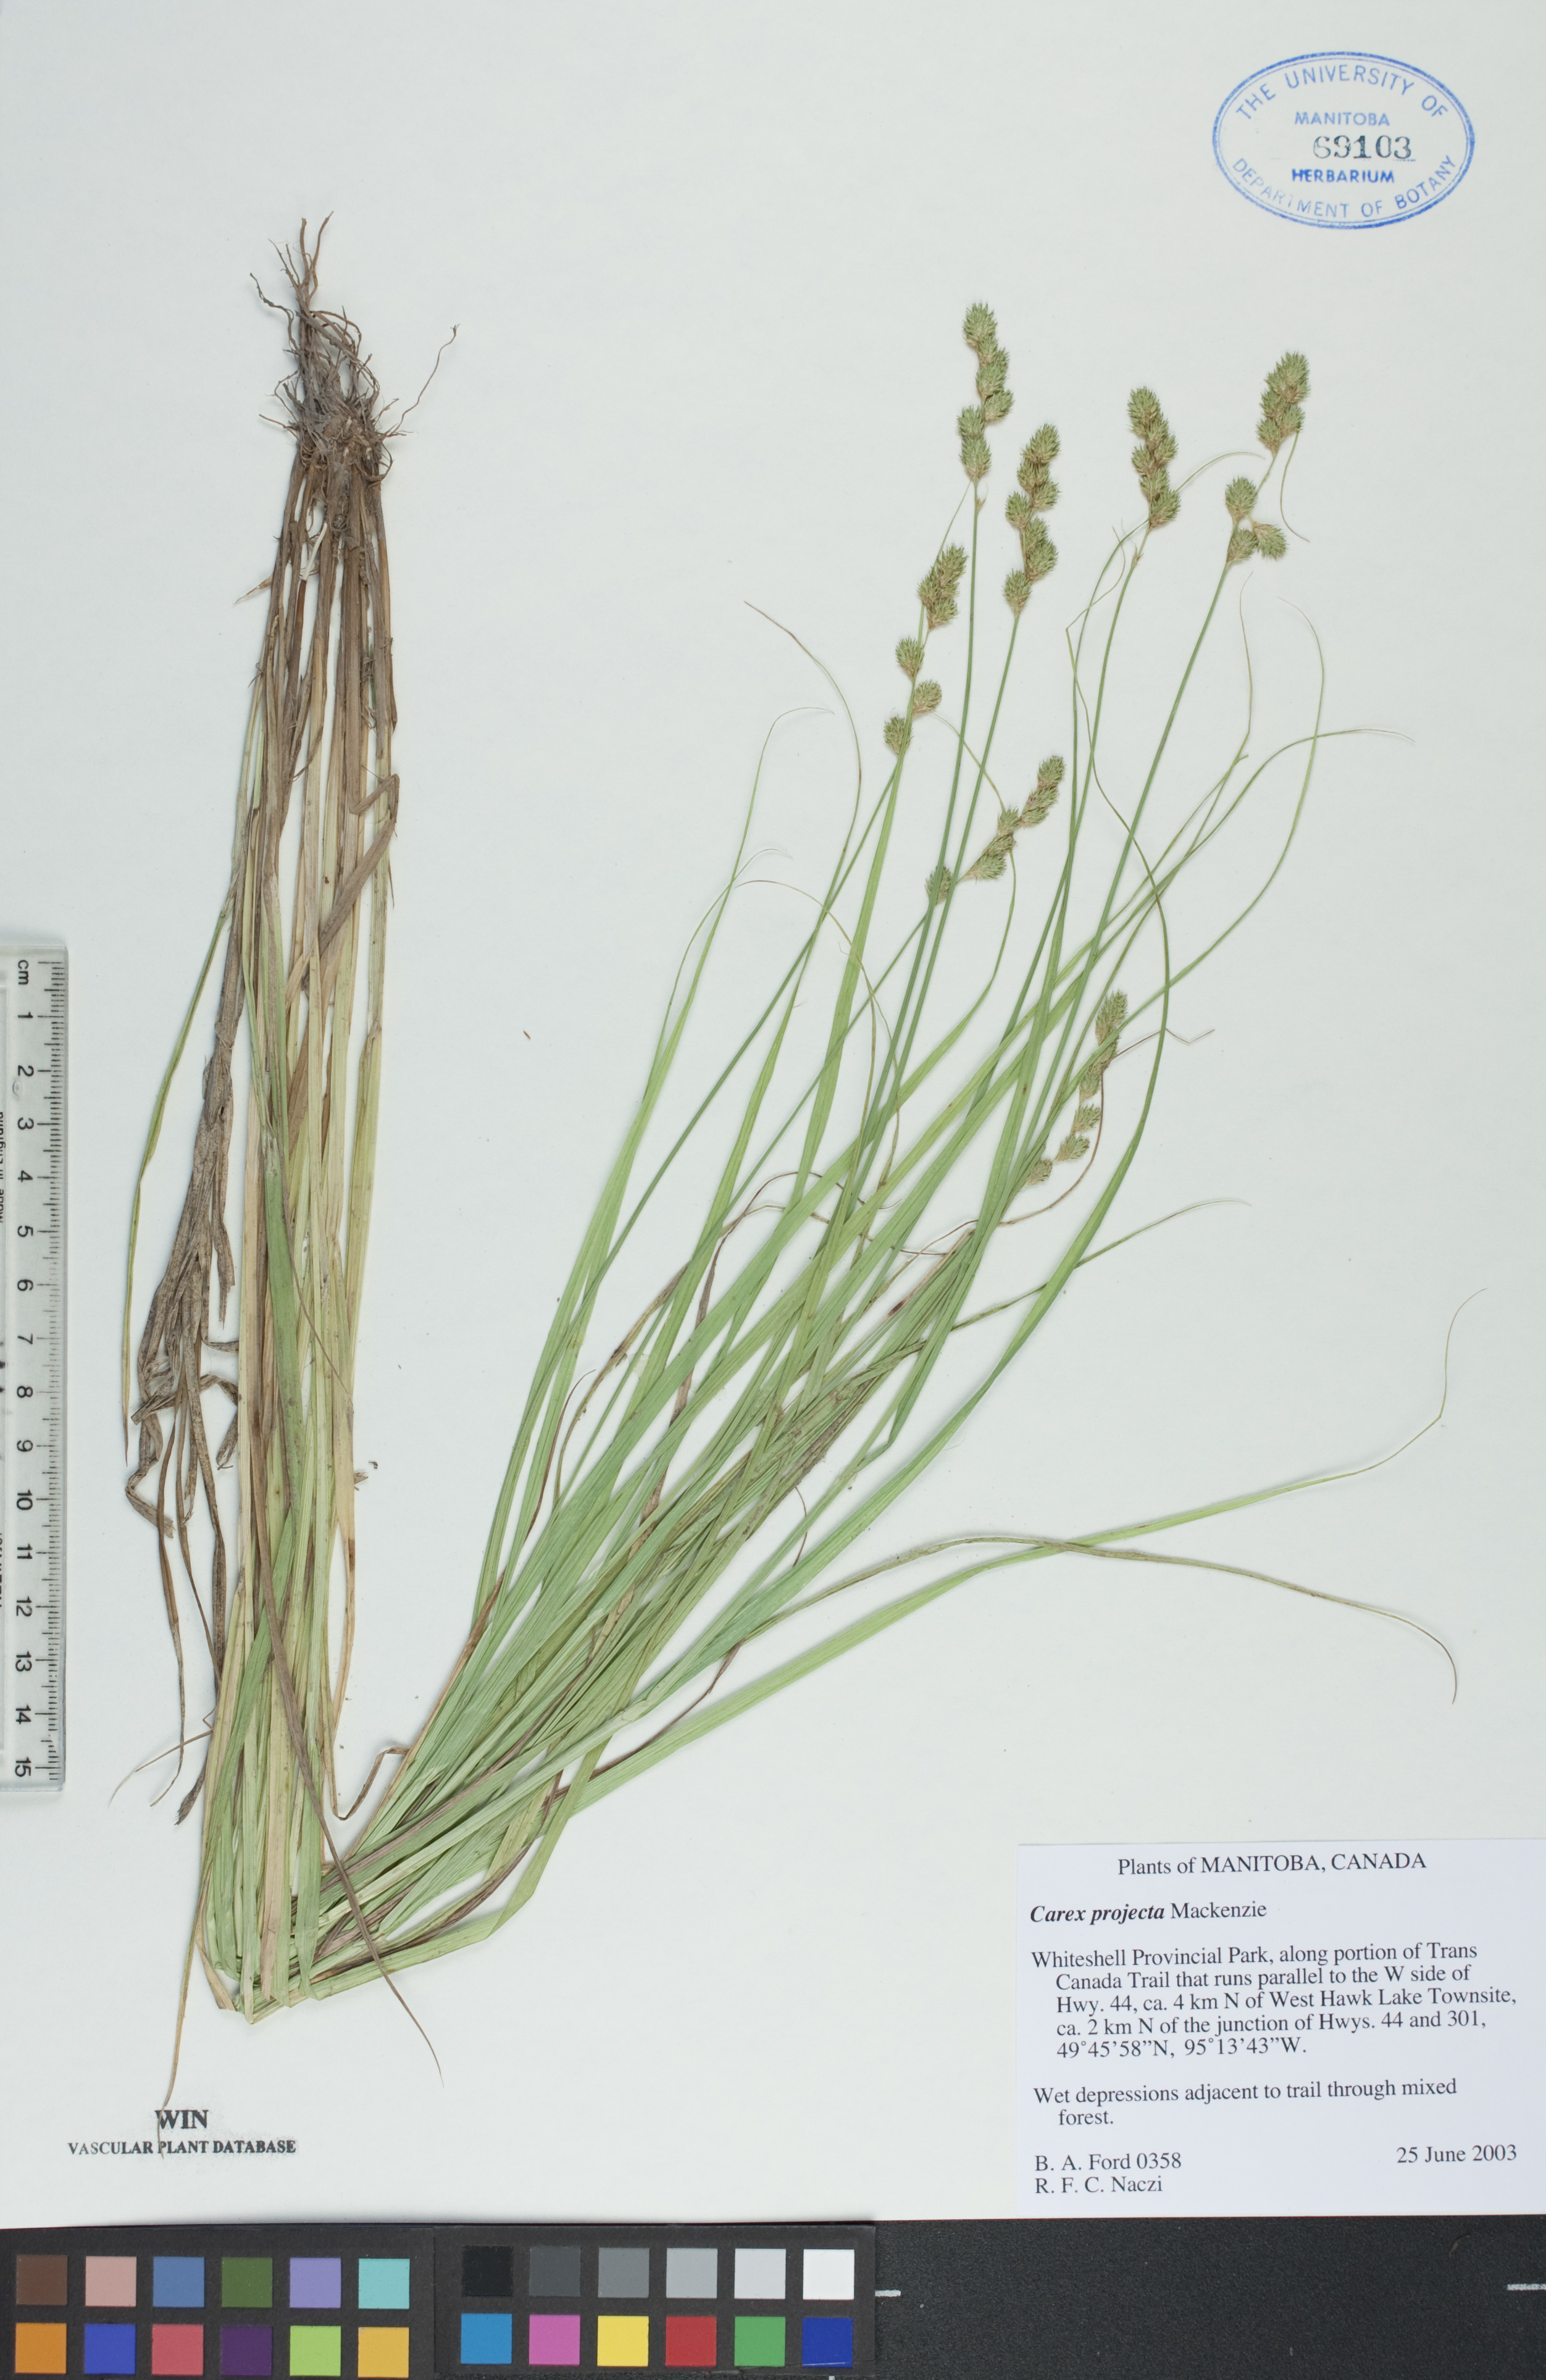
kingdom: Plantae
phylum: Tracheophyta
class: Liliopsida
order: Poales
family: Cyperaceae
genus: Carex
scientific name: Carex projecta
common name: Loose-headed oval sedge
